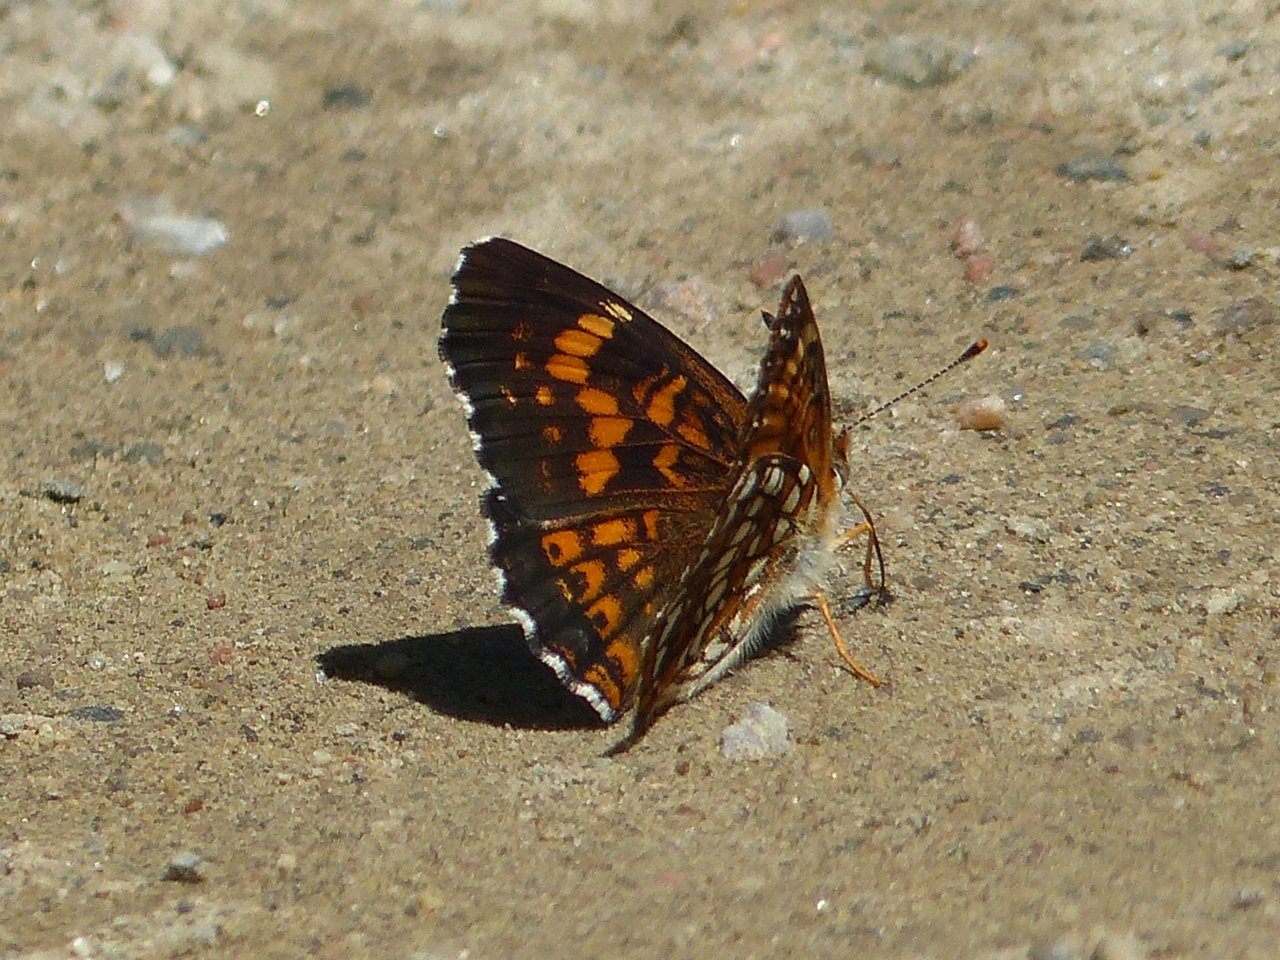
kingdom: Animalia
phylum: Arthropoda
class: Insecta
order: Lepidoptera
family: Nymphalidae
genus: Chlosyne
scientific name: Chlosyne harrisii
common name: Harris's Checkerspot
